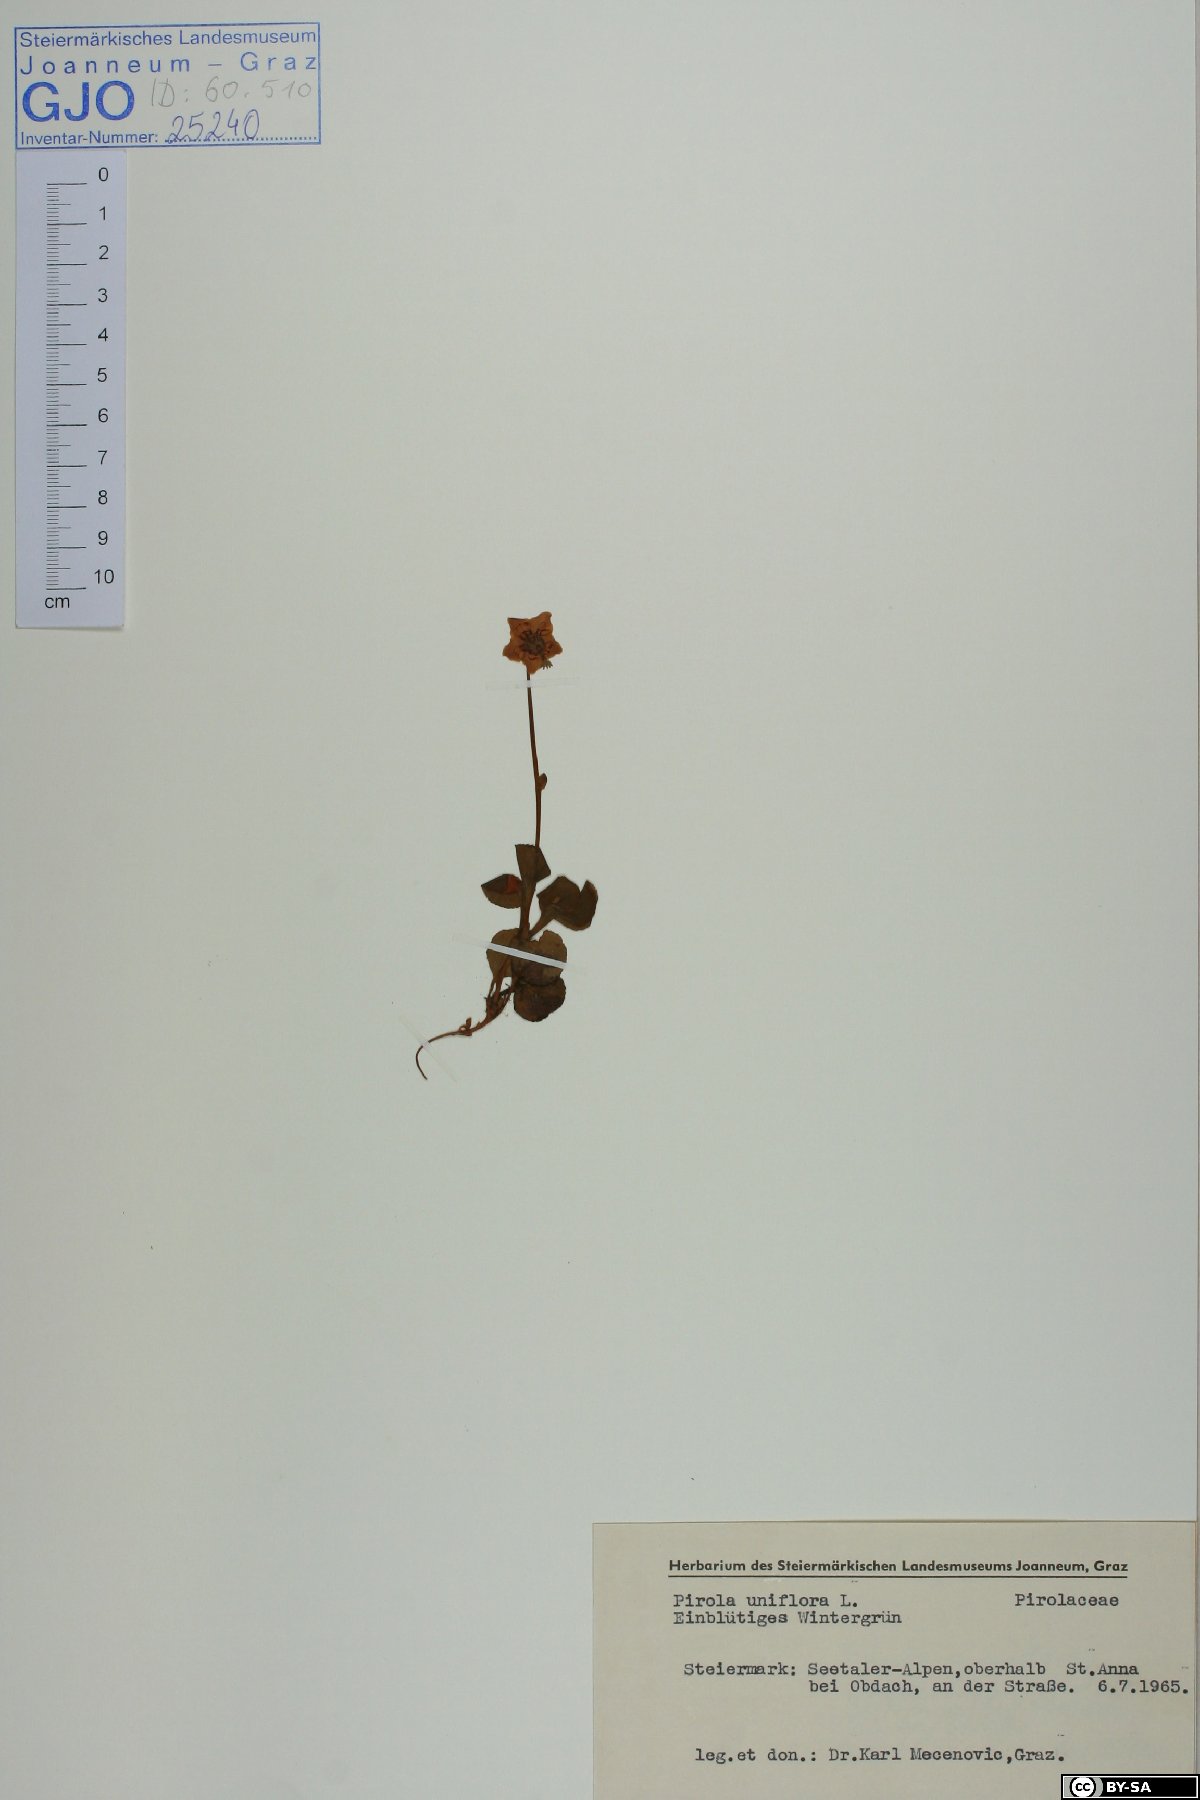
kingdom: Plantae
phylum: Tracheophyta
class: Magnoliopsida
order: Ericales
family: Ericaceae
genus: Moneses
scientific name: Moneses uniflora
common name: One-flowered wintergreen
